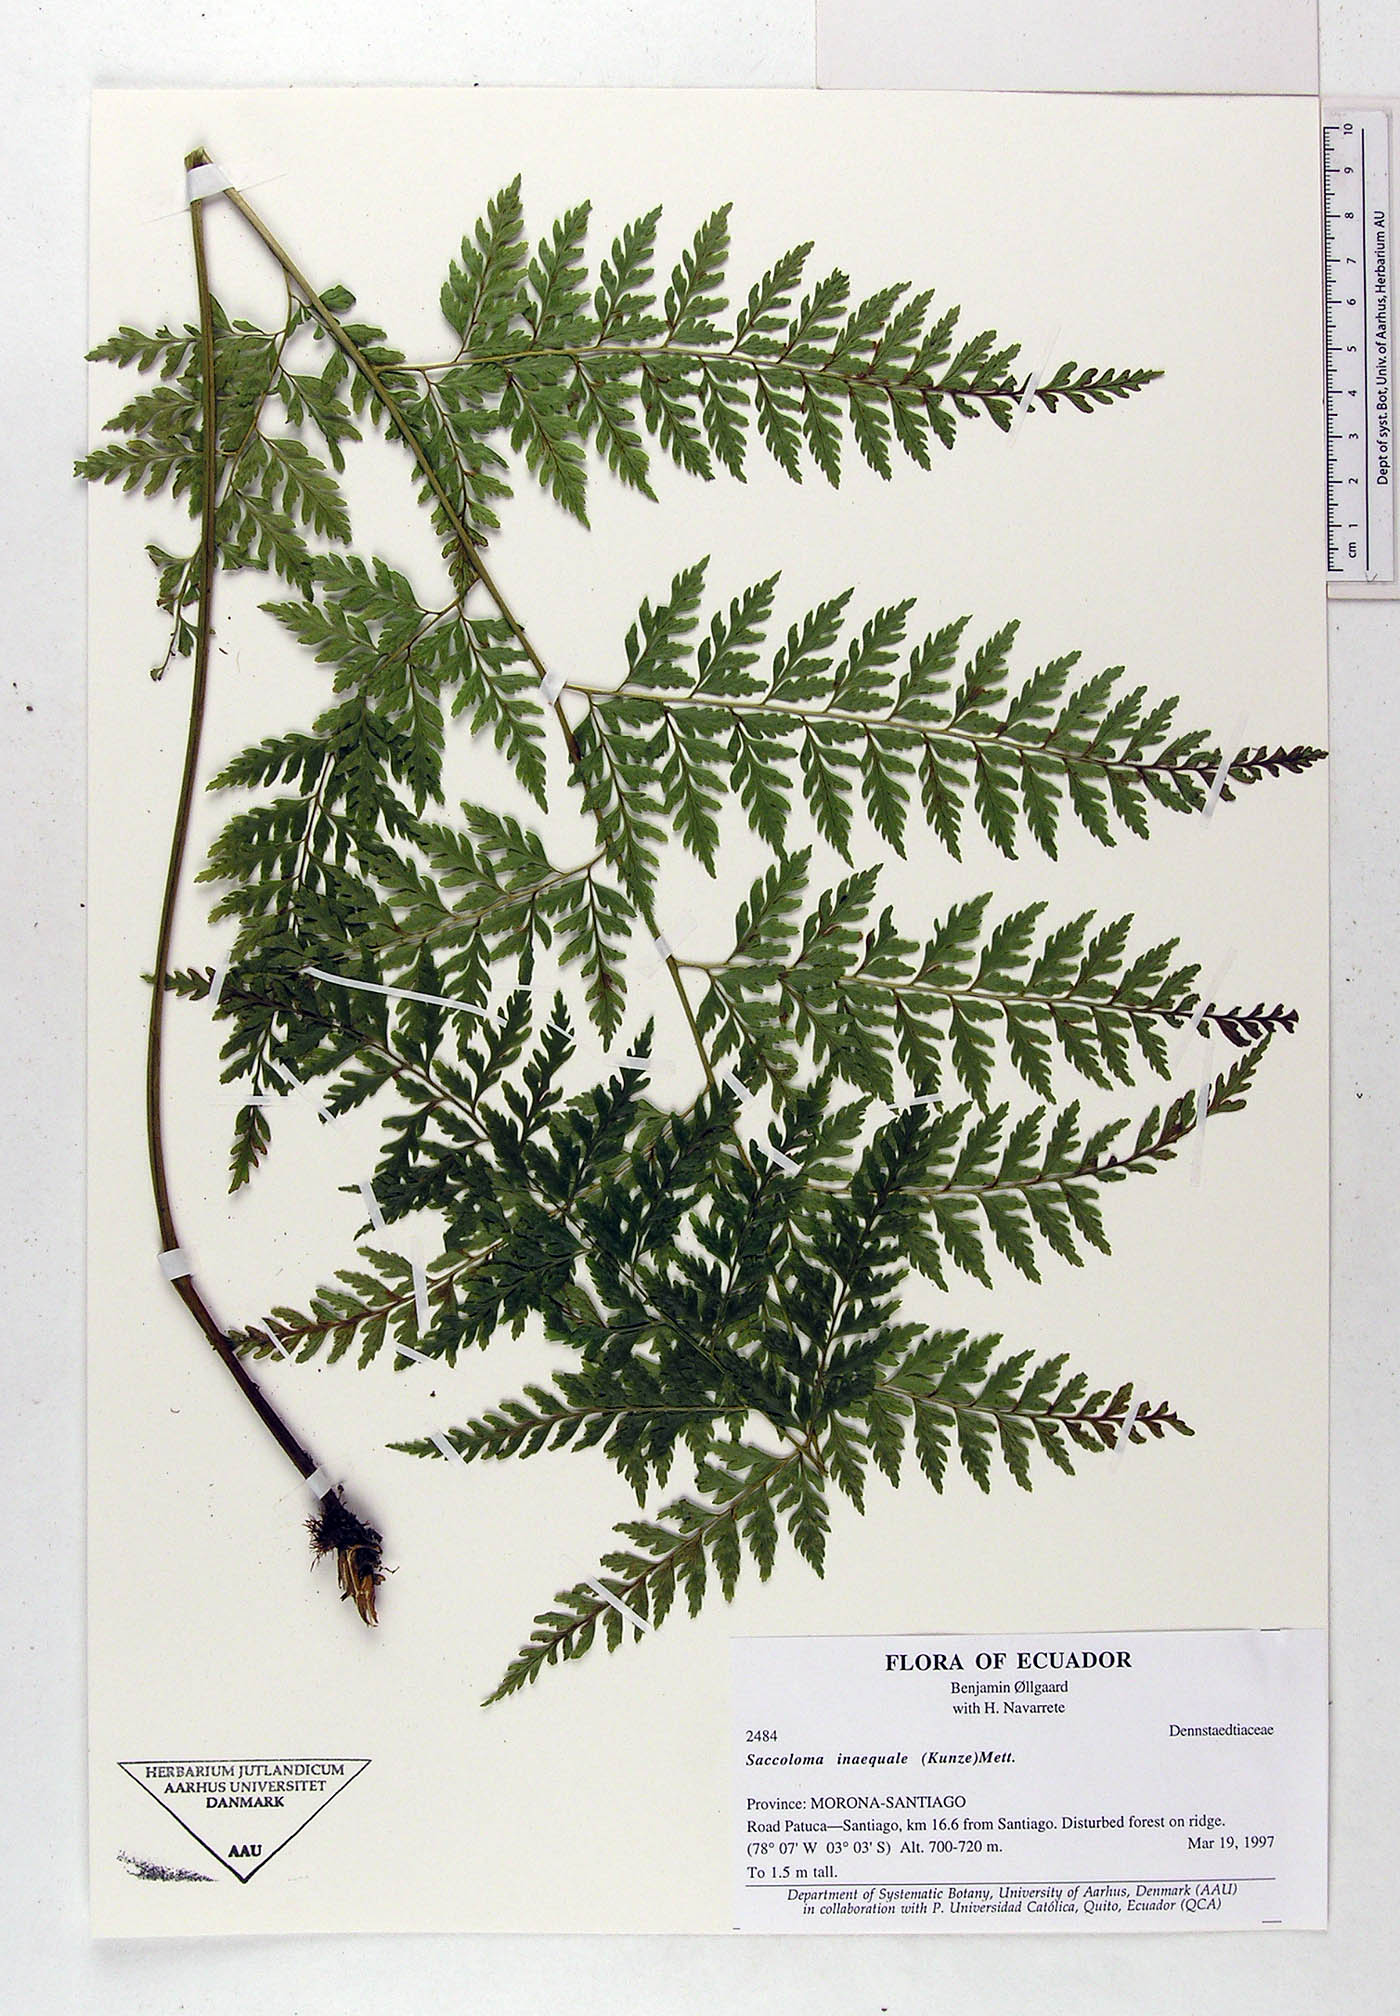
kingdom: Plantae
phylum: Tracheophyta
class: Polypodiopsida
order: Polypodiales
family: Saccolomataceae
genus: Saccoloma
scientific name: Saccoloma inaequale
